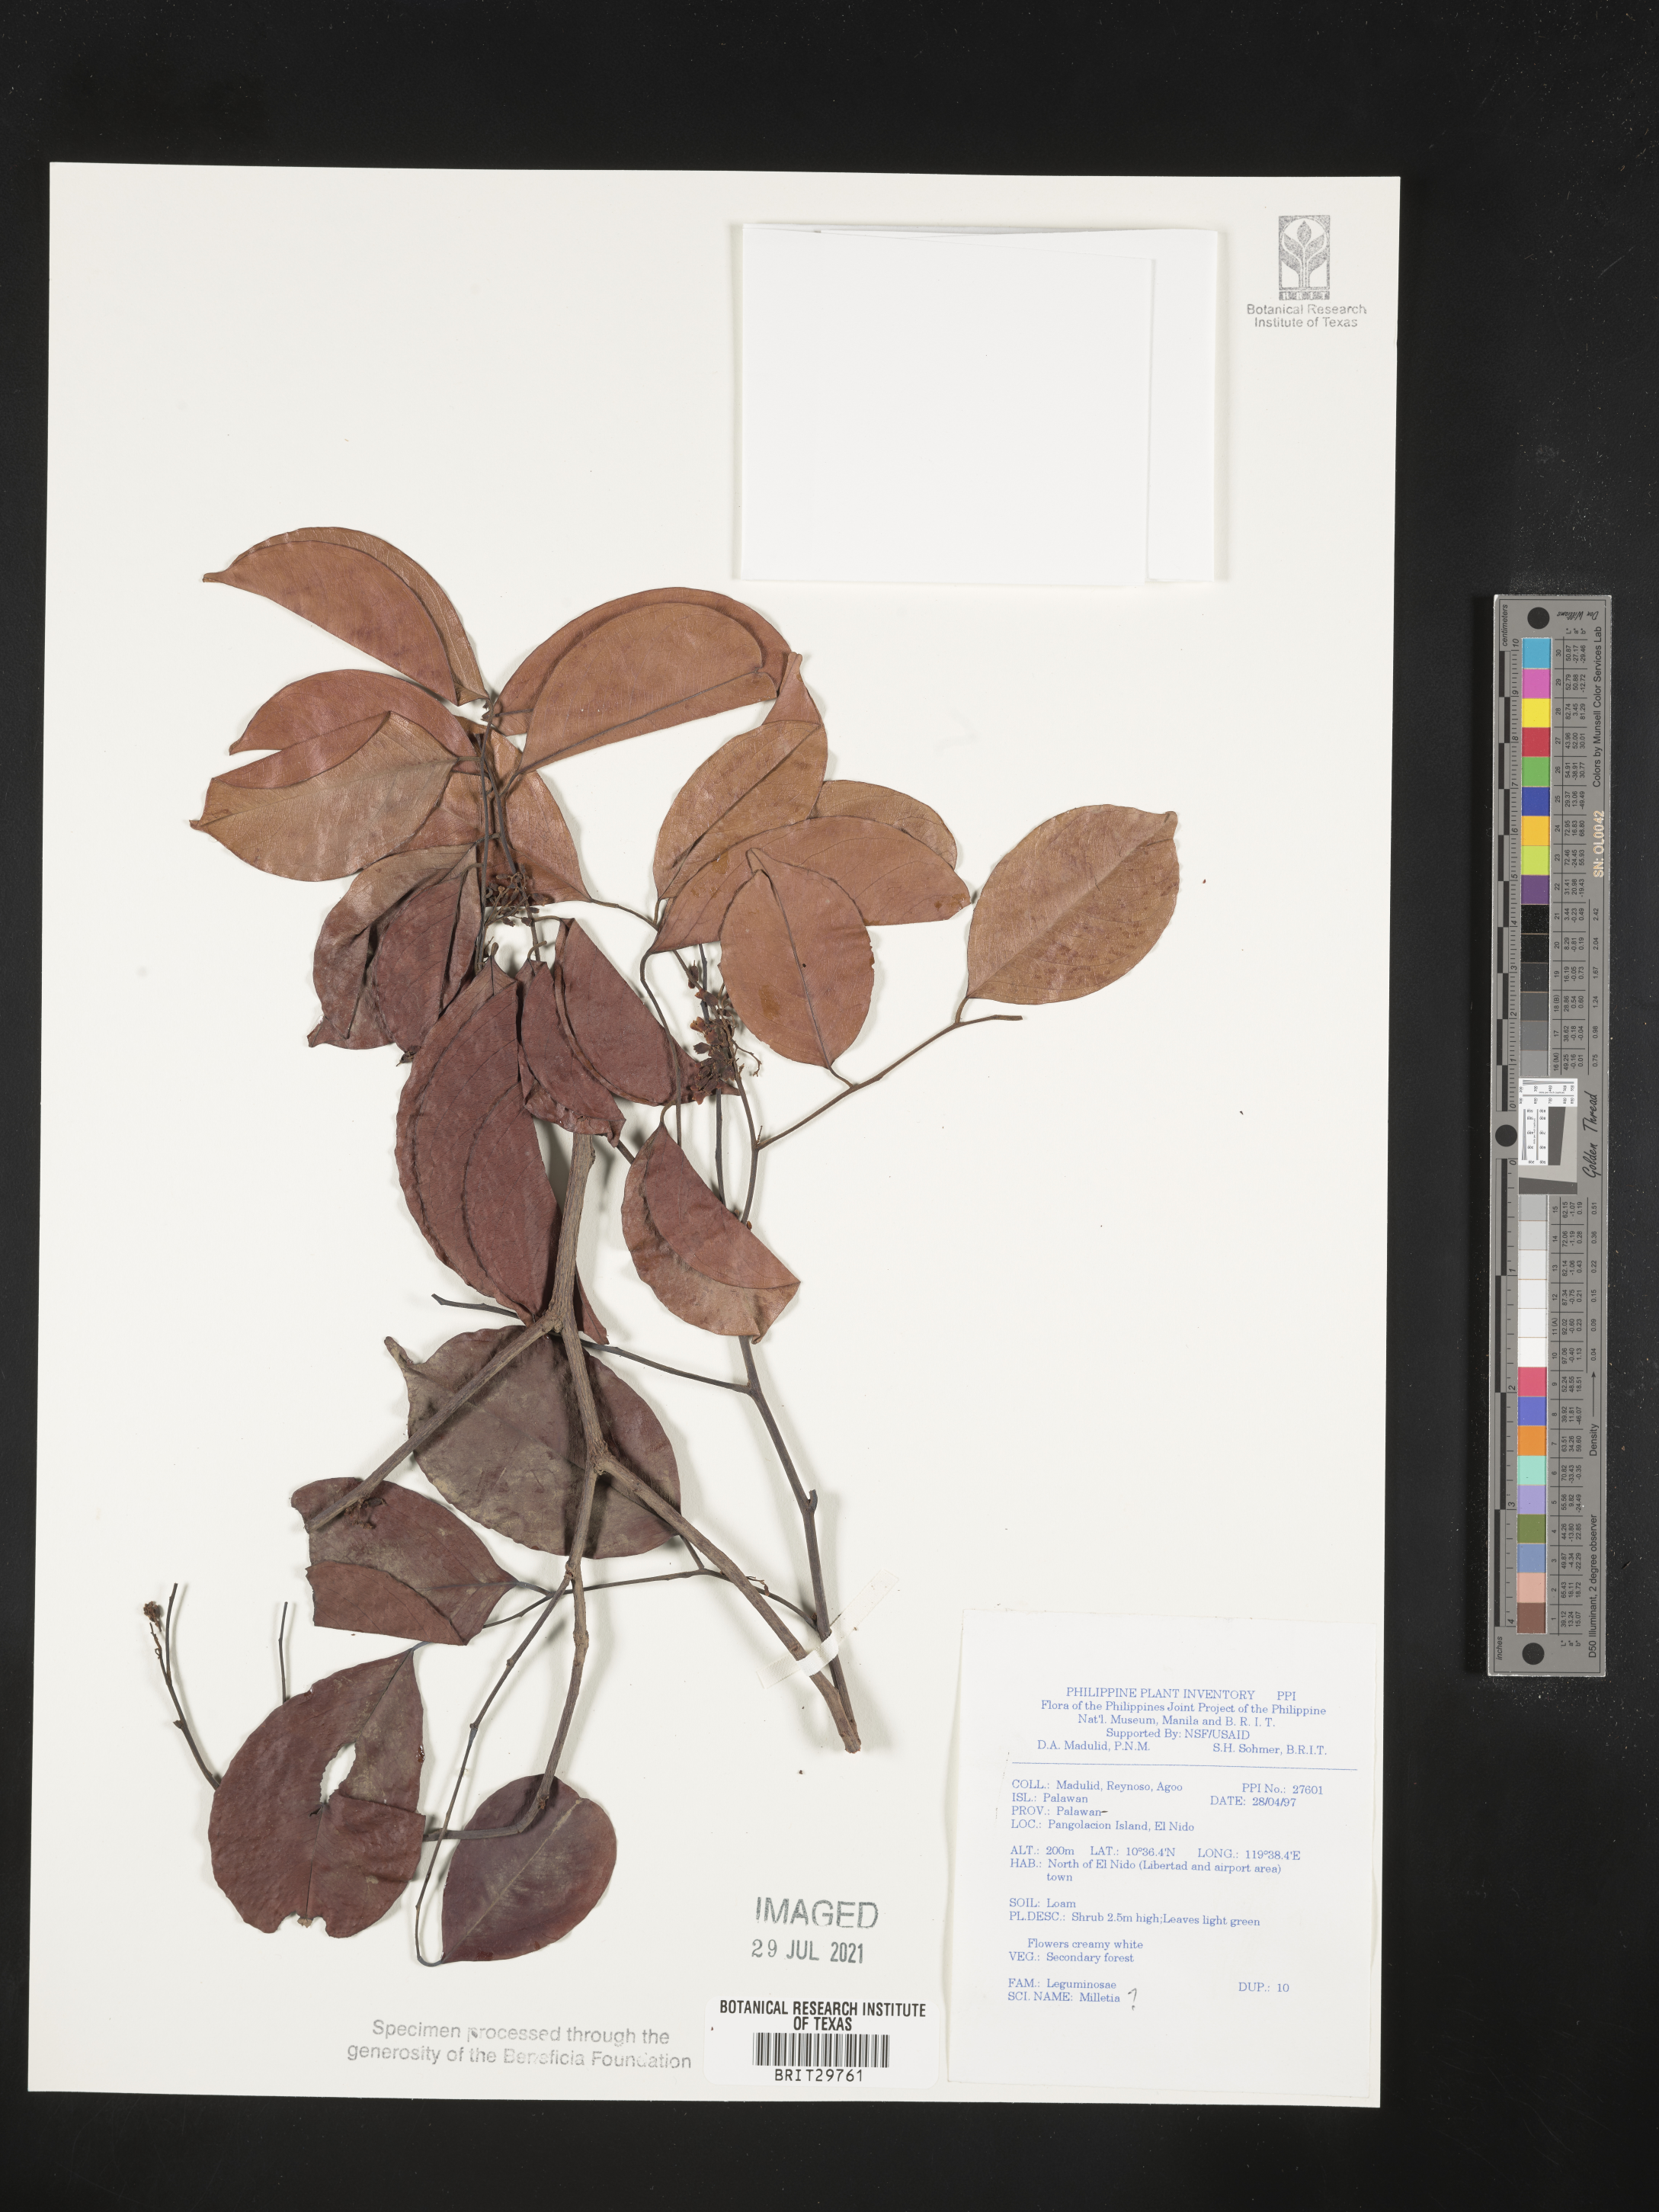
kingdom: Plantae
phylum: Tracheophyta
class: Magnoliopsida
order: Fabales
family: Fabaceae
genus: Millettia
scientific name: Millettia
